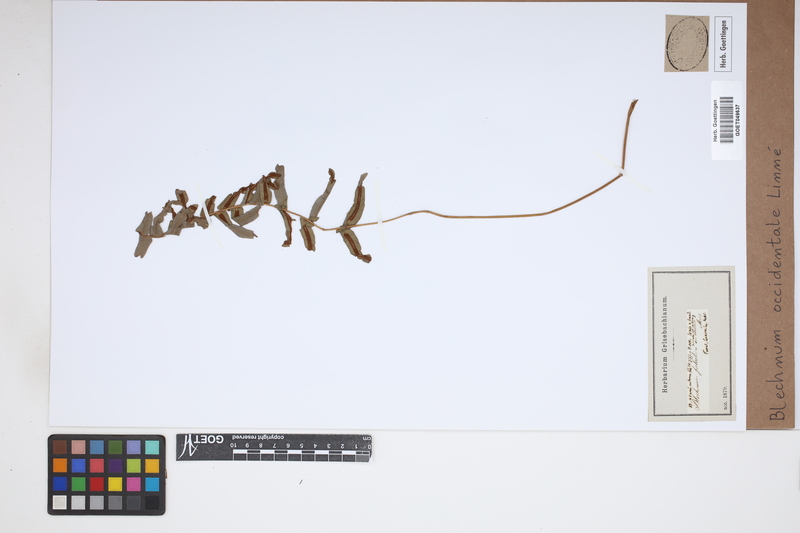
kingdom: Plantae
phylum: Tracheophyta
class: Polypodiopsida
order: Polypodiales
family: Blechnaceae
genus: Blechnum
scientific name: Blechnum occidentale
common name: Hammock fern
